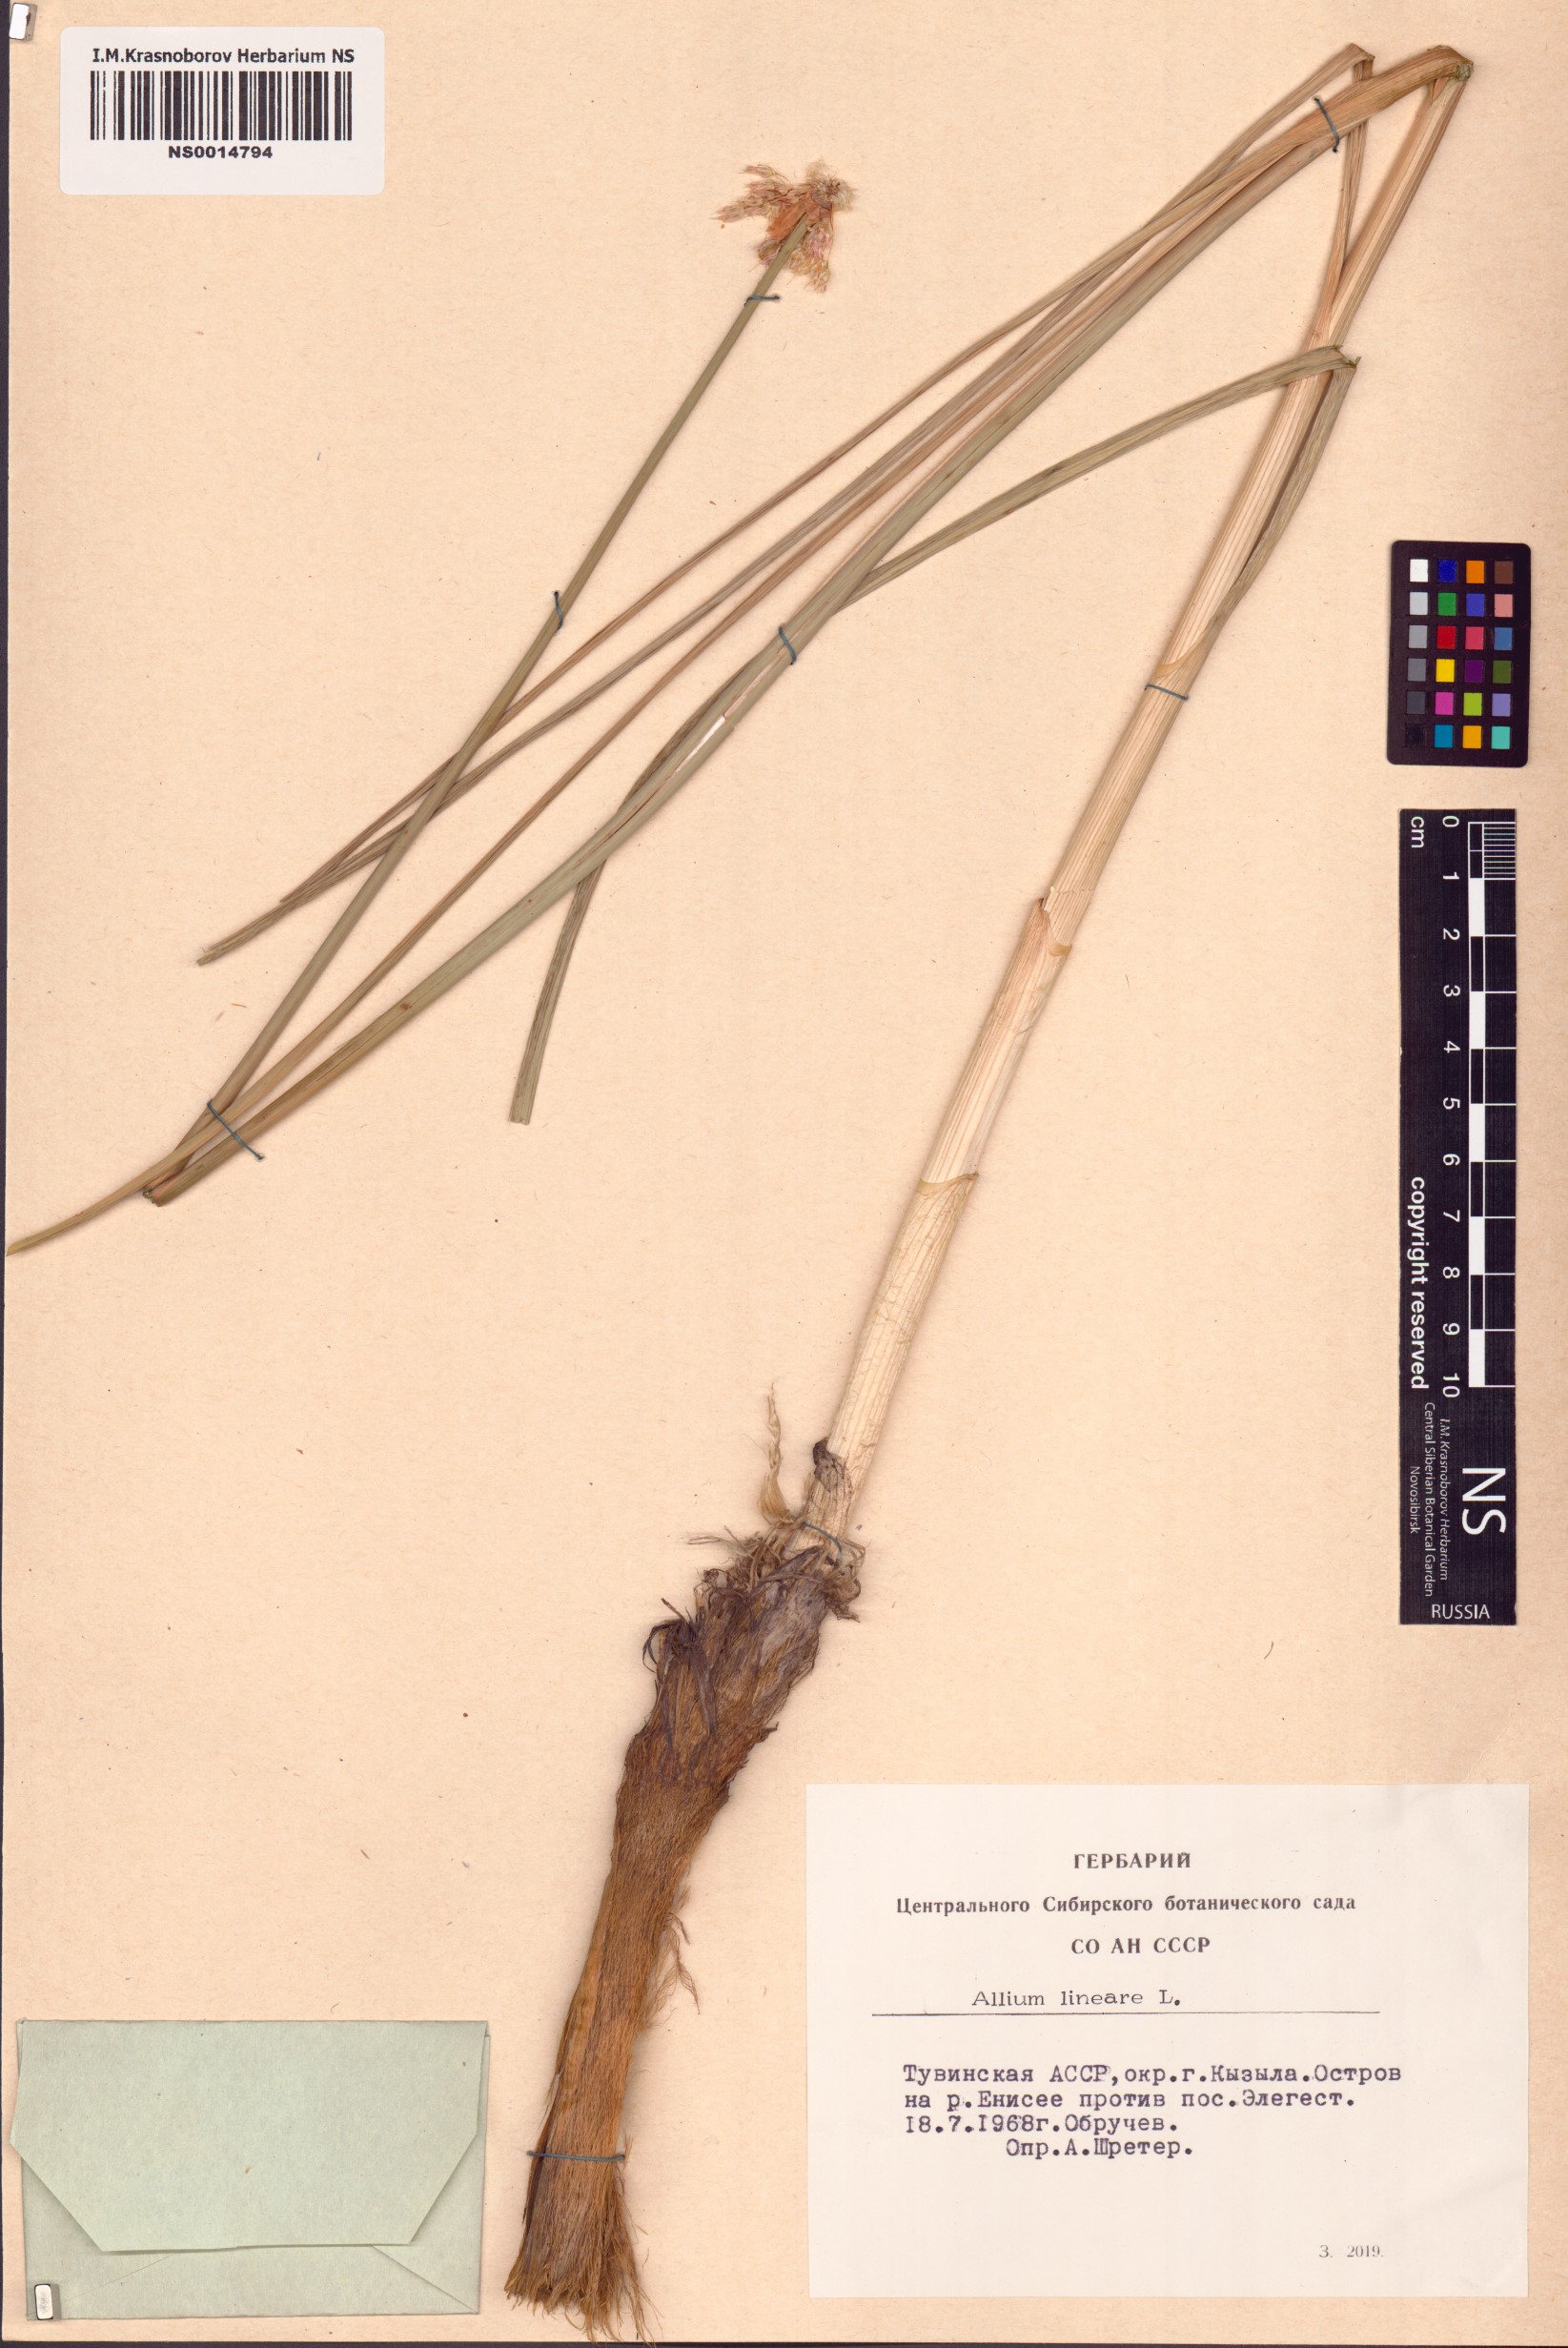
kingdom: Plantae
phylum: Tracheophyta
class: Liliopsida
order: Asparagales
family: Amaryllidaceae
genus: Allium
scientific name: Allium lineare
